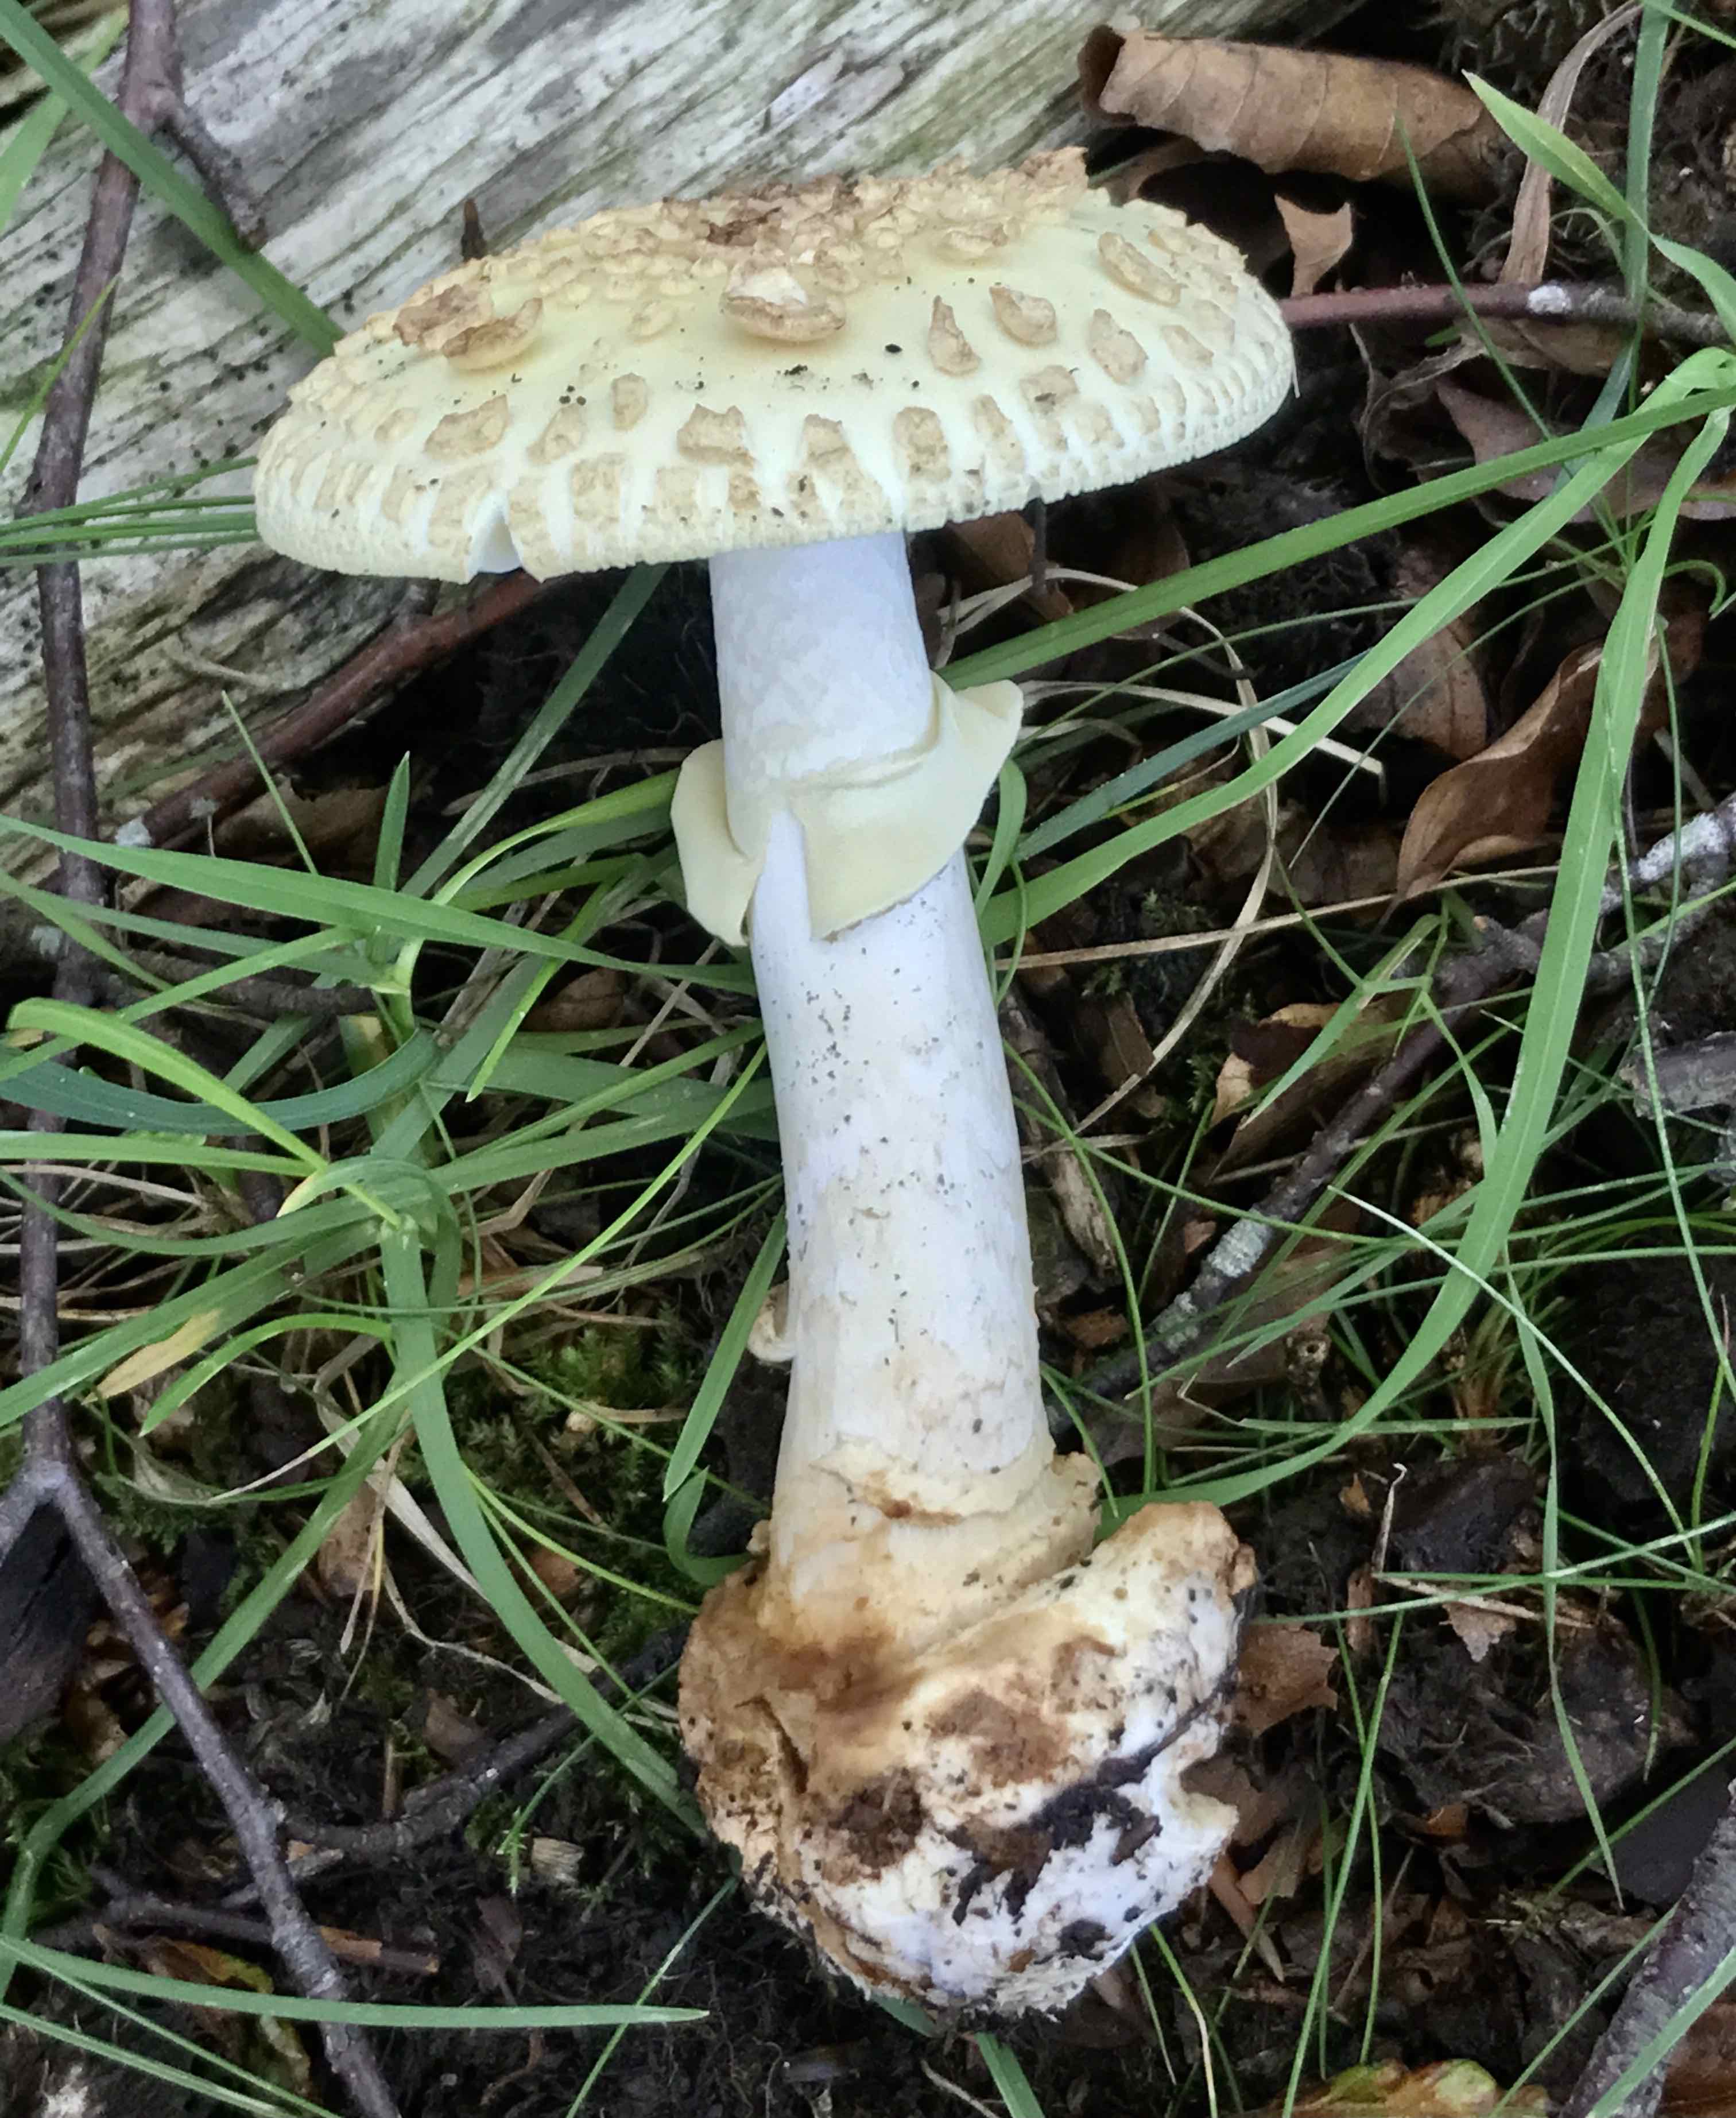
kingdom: Fungi
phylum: Basidiomycota
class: Agaricomycetes
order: Agaricales
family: Amanitaceae
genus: Amanita
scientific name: Amanita citrina
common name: kugleknoldet fluesvamp
